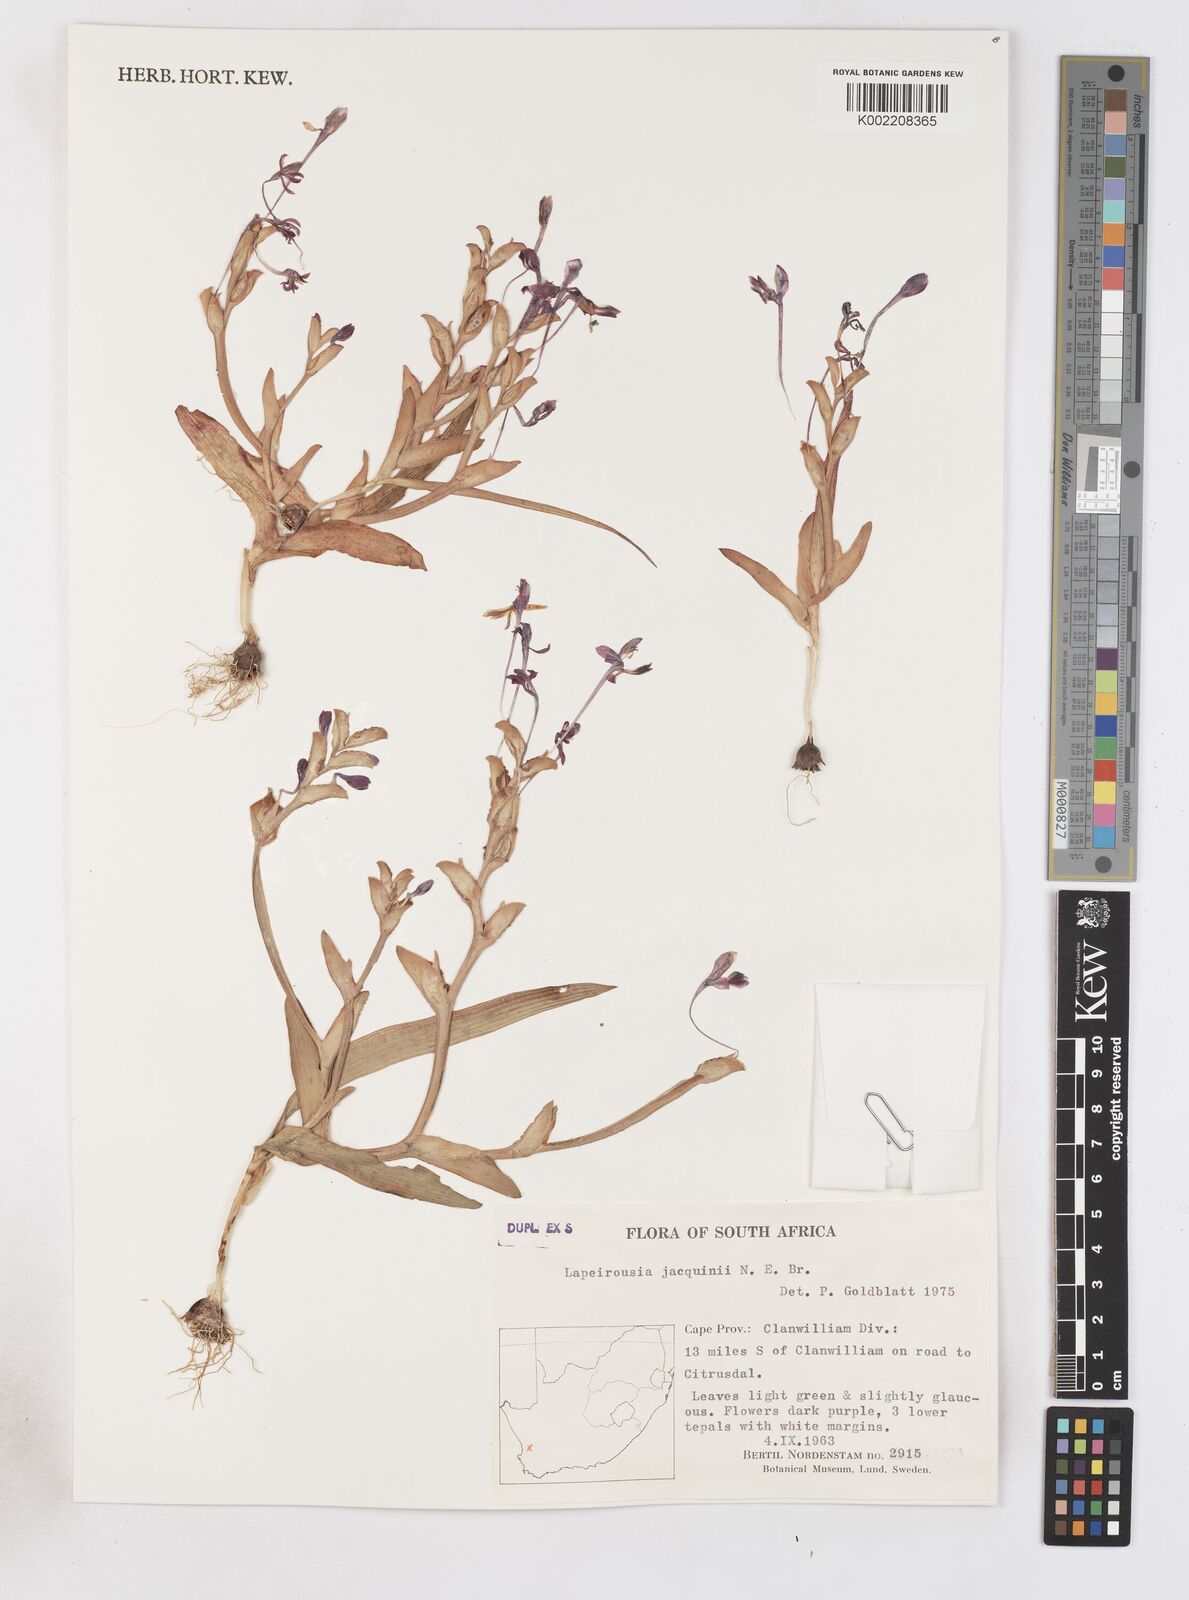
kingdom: Plantae
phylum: Tracheophyta
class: Liliopsida
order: Asparagales
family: Iridaceae
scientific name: Iridaceae
